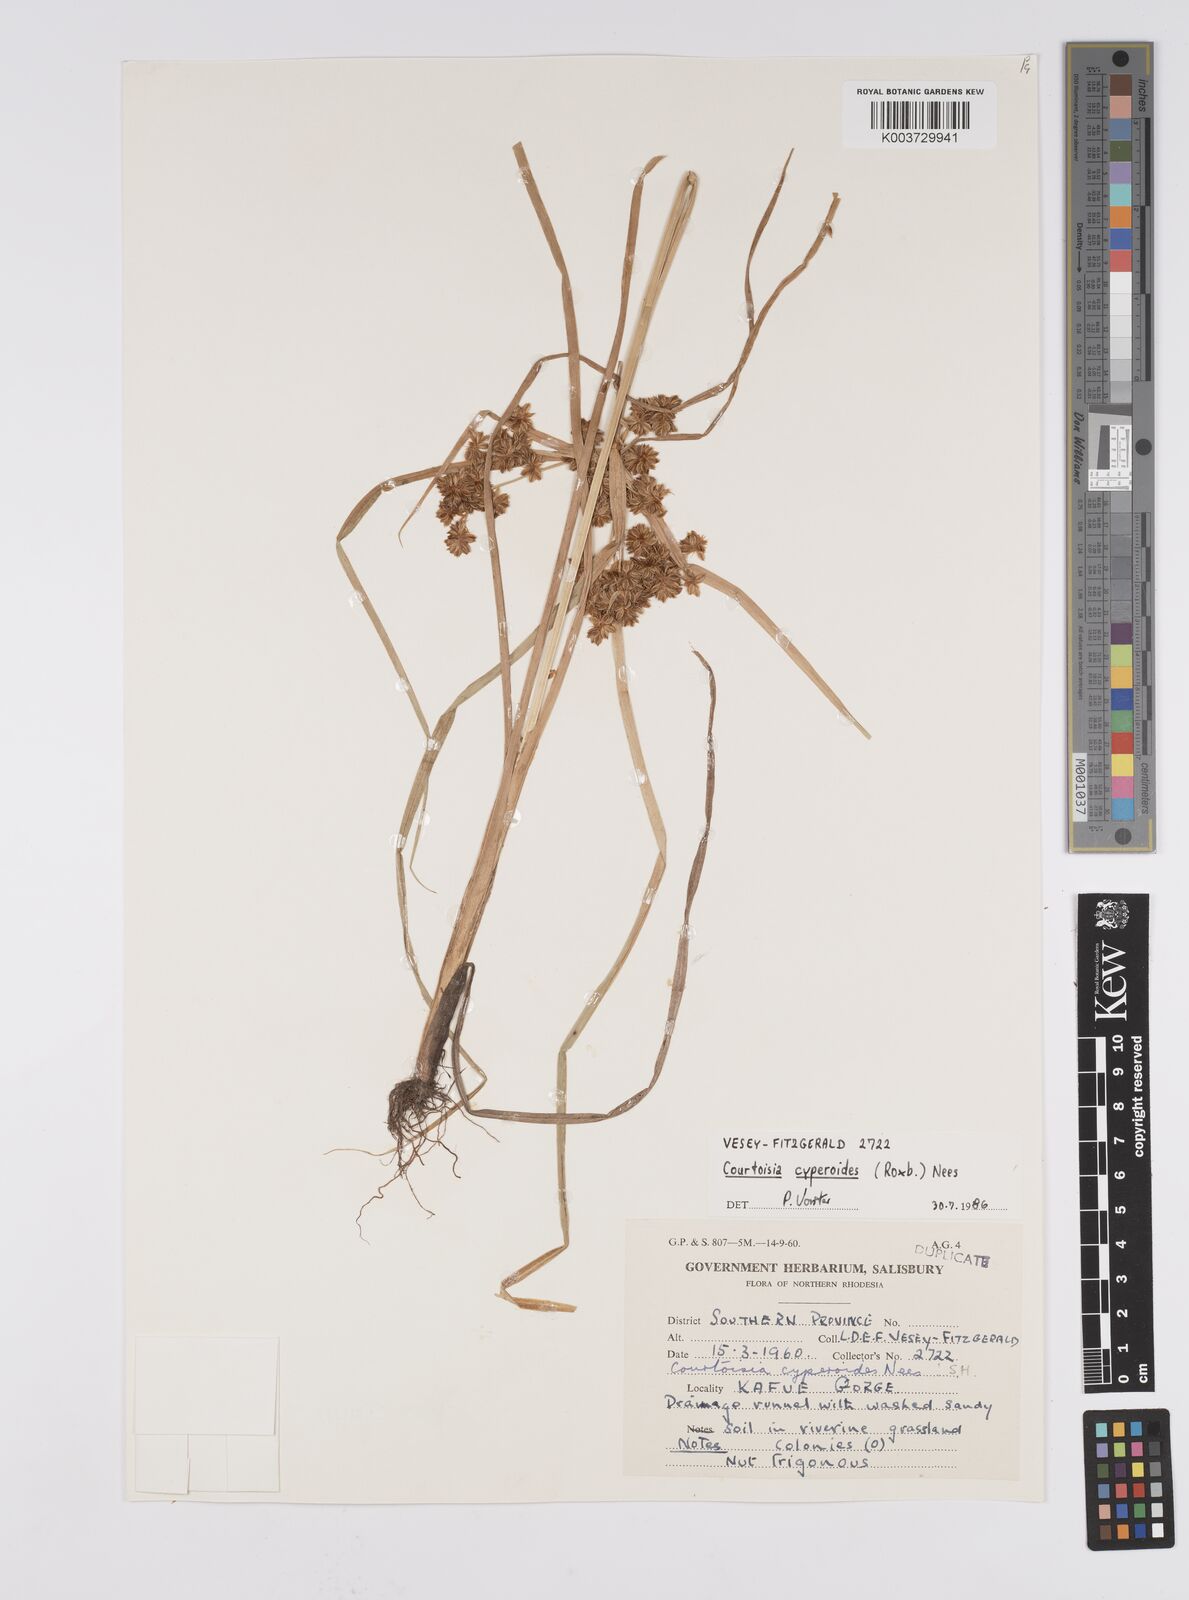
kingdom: Plantae
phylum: Tracheophyta
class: Liliopsida
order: Poales
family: Cyperaceae
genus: Cyperus
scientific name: Cyperus cyperoides
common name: Pacific island flat sedge
